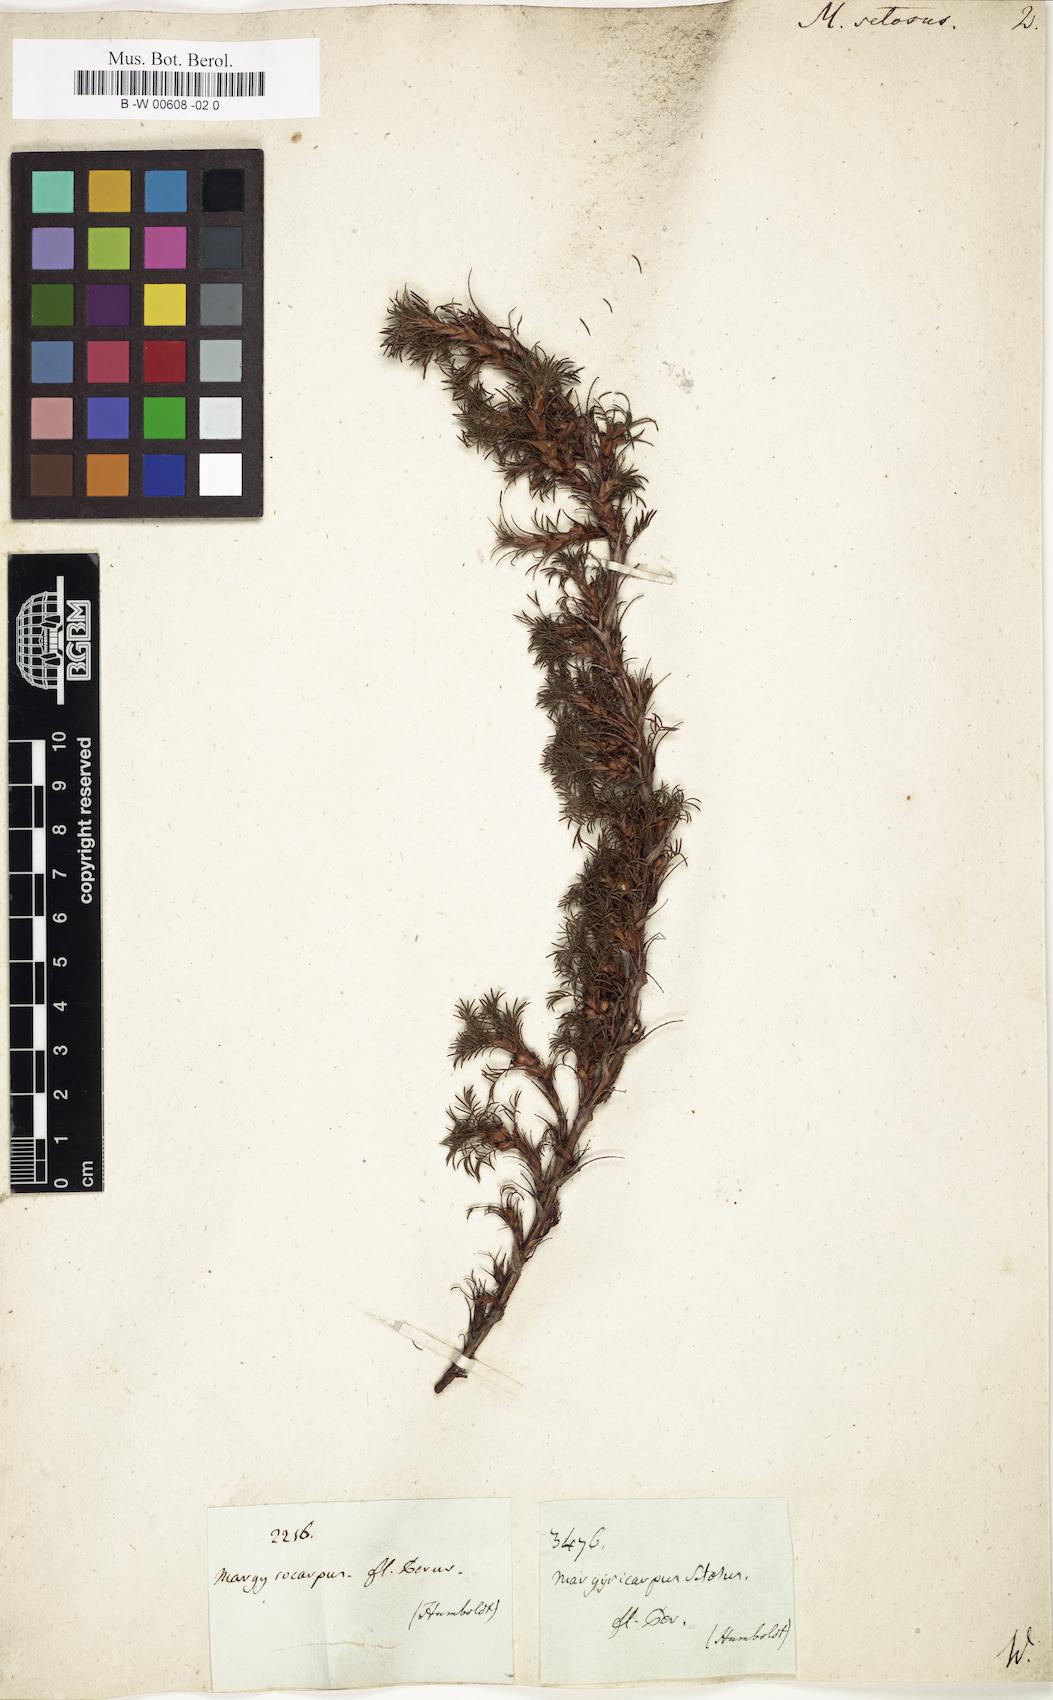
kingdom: Plantae
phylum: Tracheophyta
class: Magnoliopsida
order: Rosales
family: Rosaceae
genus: Margyricarpus
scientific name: Margyricarpus pinnatus
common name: Pearlfruit
